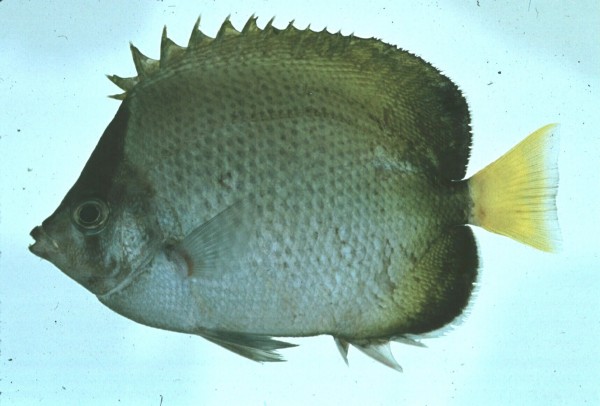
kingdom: Animalia
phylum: Chordata
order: Perciformes
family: Chaetodontidae
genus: Chaetodon
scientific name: Chaetodon dolosus
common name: African butterflyfish
